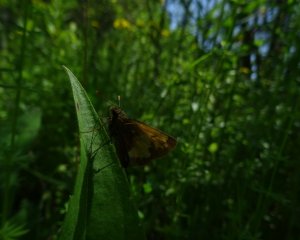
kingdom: Animalia
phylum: Arthropoda
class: Insecta
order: Lepidoptera
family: Hesperiidae
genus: Lon
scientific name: Lon hobomok
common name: Hobomok Skipper
